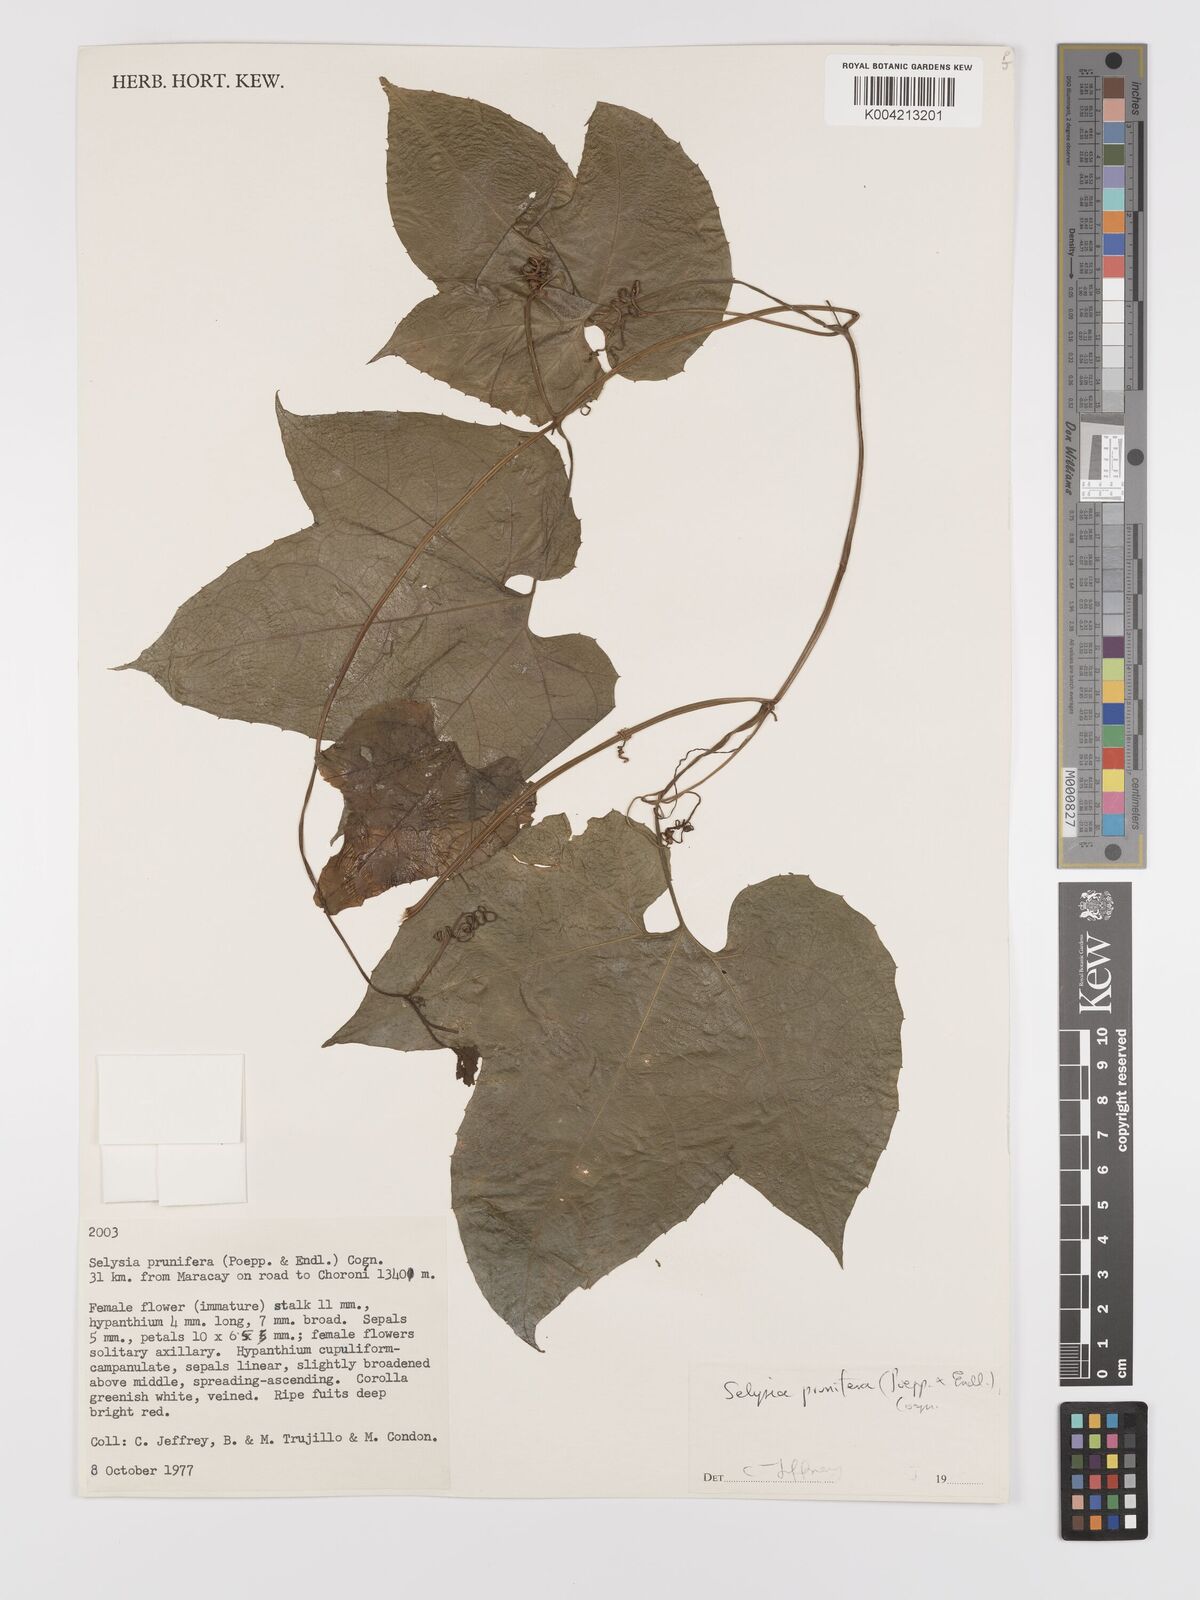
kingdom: Plantae
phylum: Tracheophyta
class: Magnoliopsida
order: Cucurbitales
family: Cucurbitaceae
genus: Cayaponia
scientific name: Cayaponia prunifera
